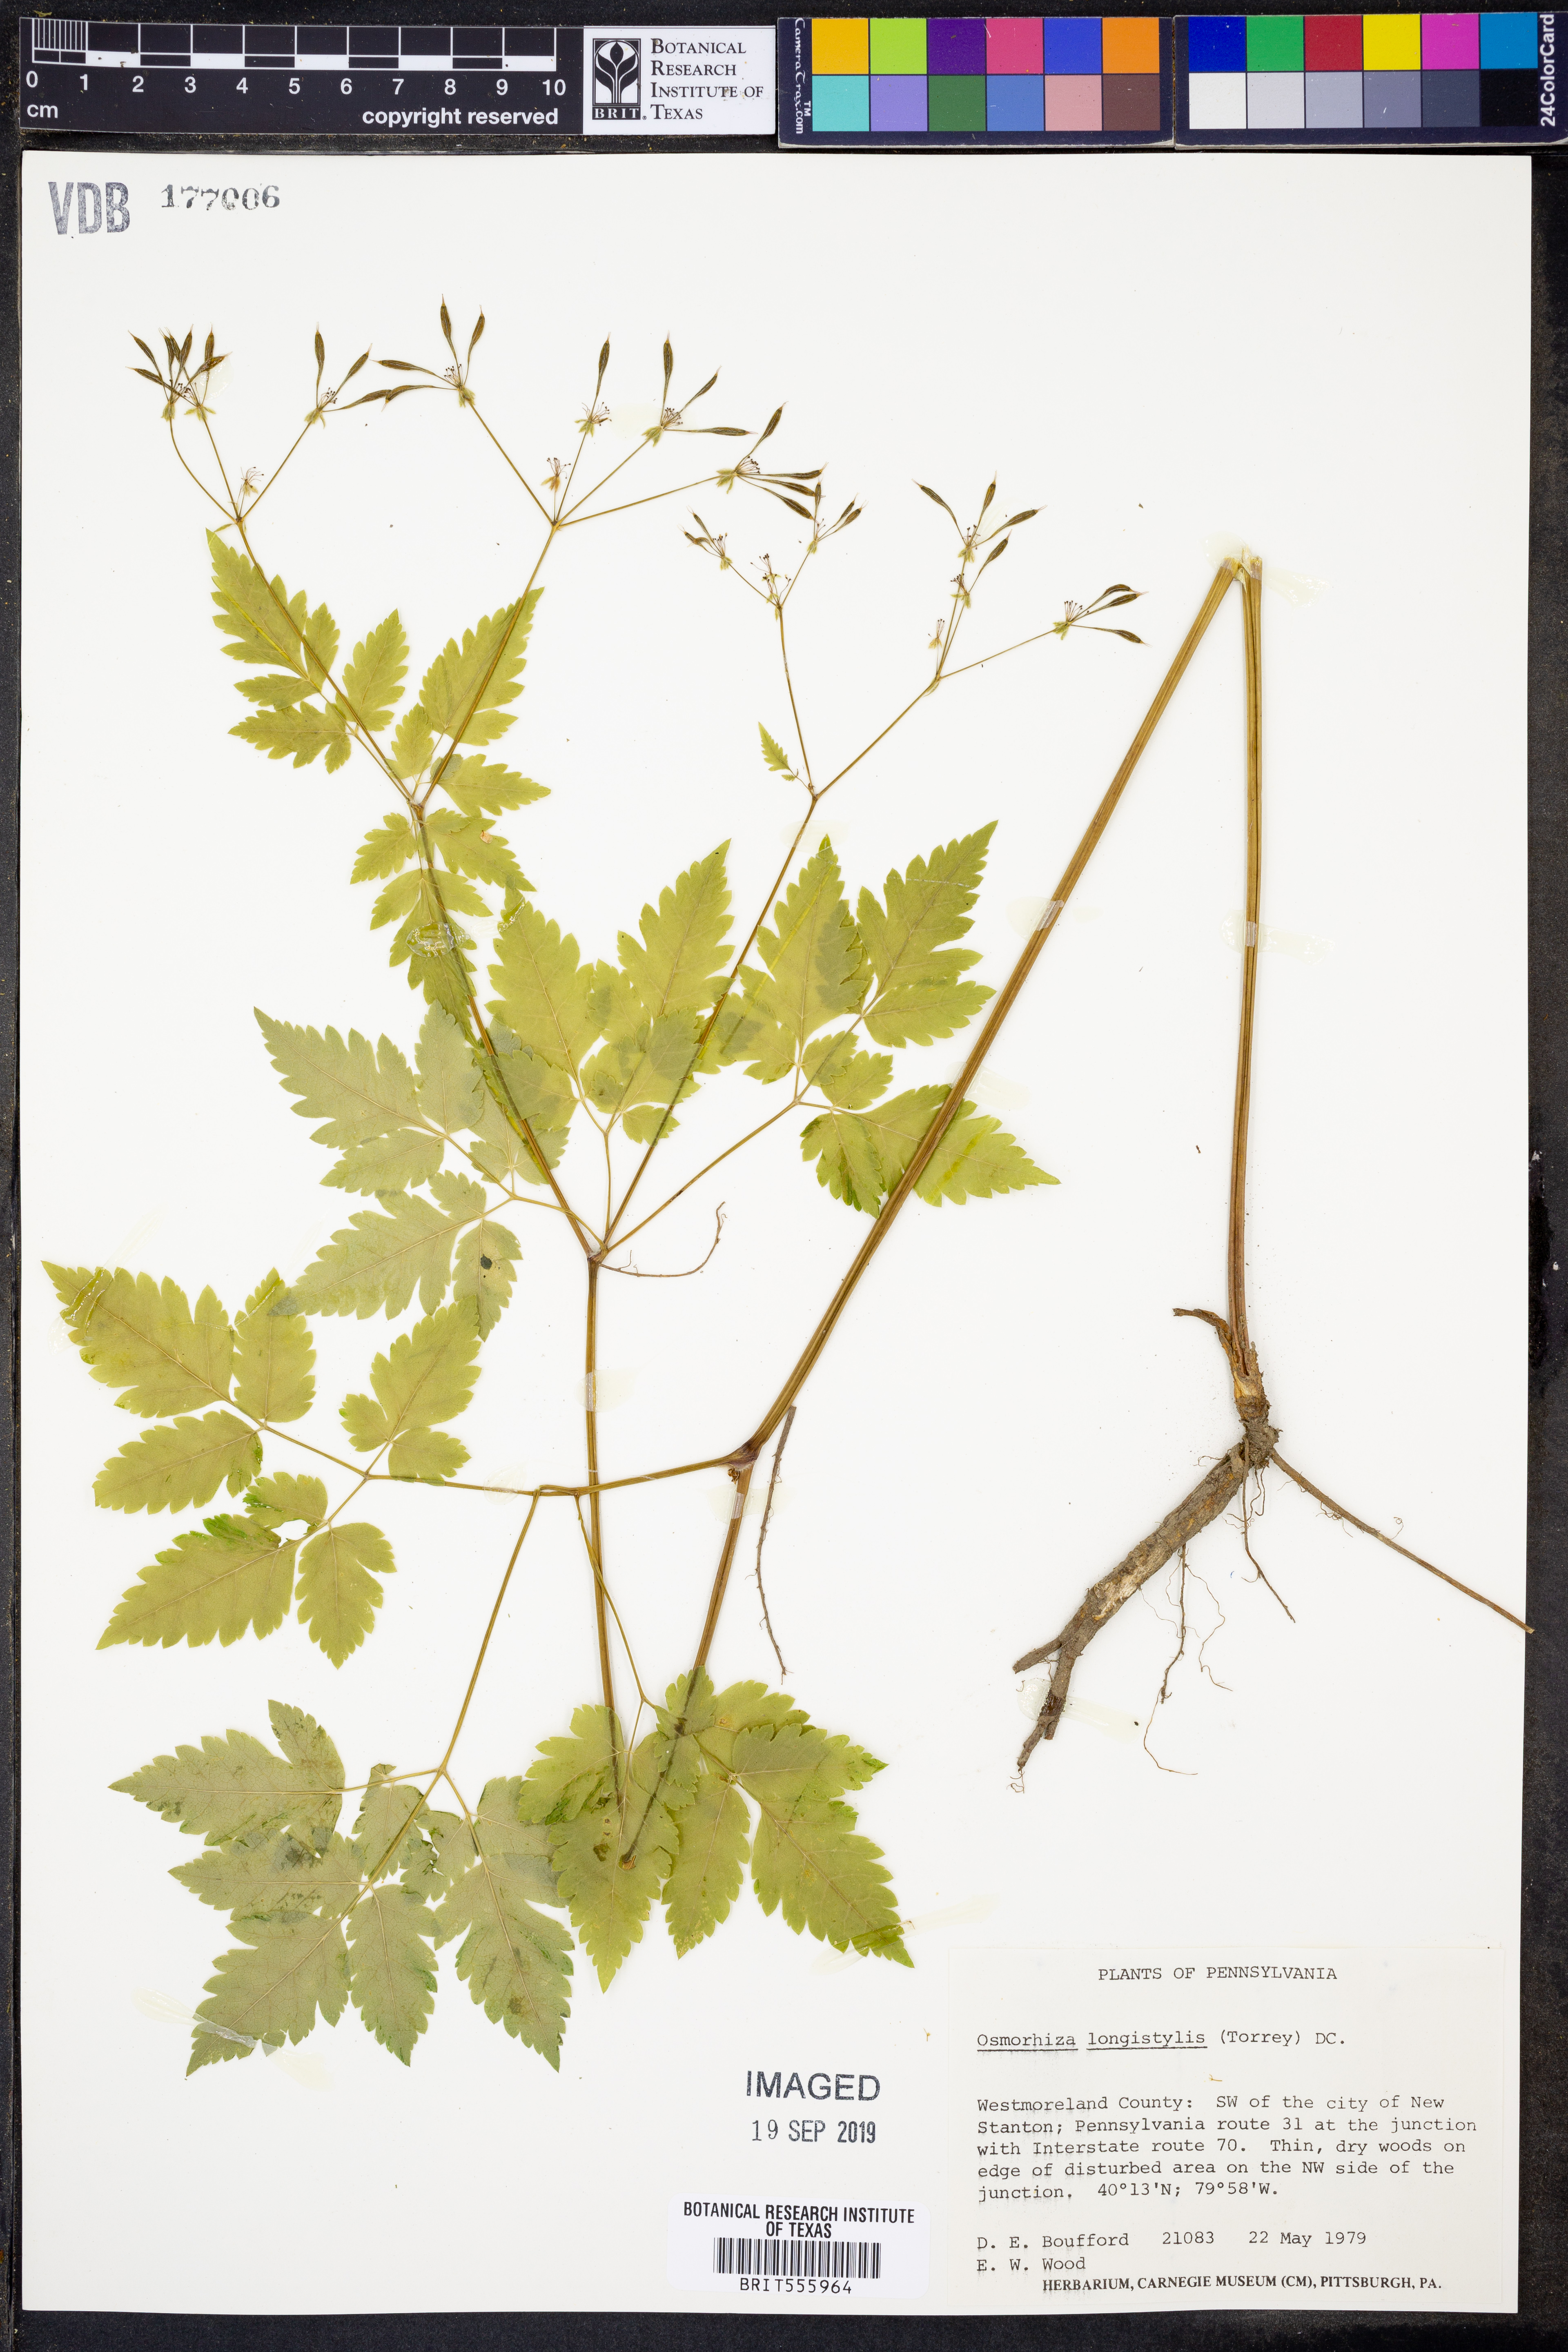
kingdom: Plantae
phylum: Tracheophyta
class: Magnoliopsida
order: Apiales
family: Apiaceae
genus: Osmorhiza
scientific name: Osmorhiza longistylis
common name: Smooth sweet cicely
